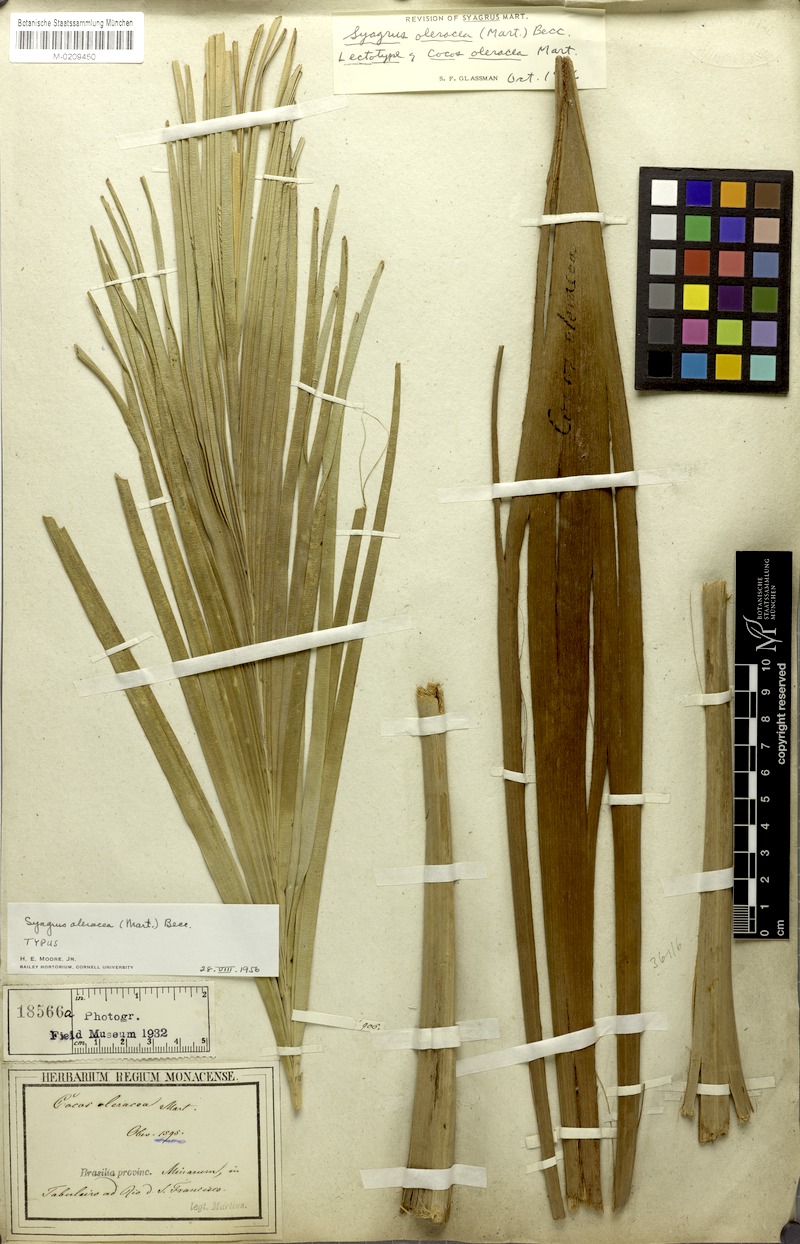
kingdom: Plantae
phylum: Tracheophyta
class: Liliopsida
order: Arecales
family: Arecaceae
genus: Syagrus
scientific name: Syagrus oleracea
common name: Catole palm
